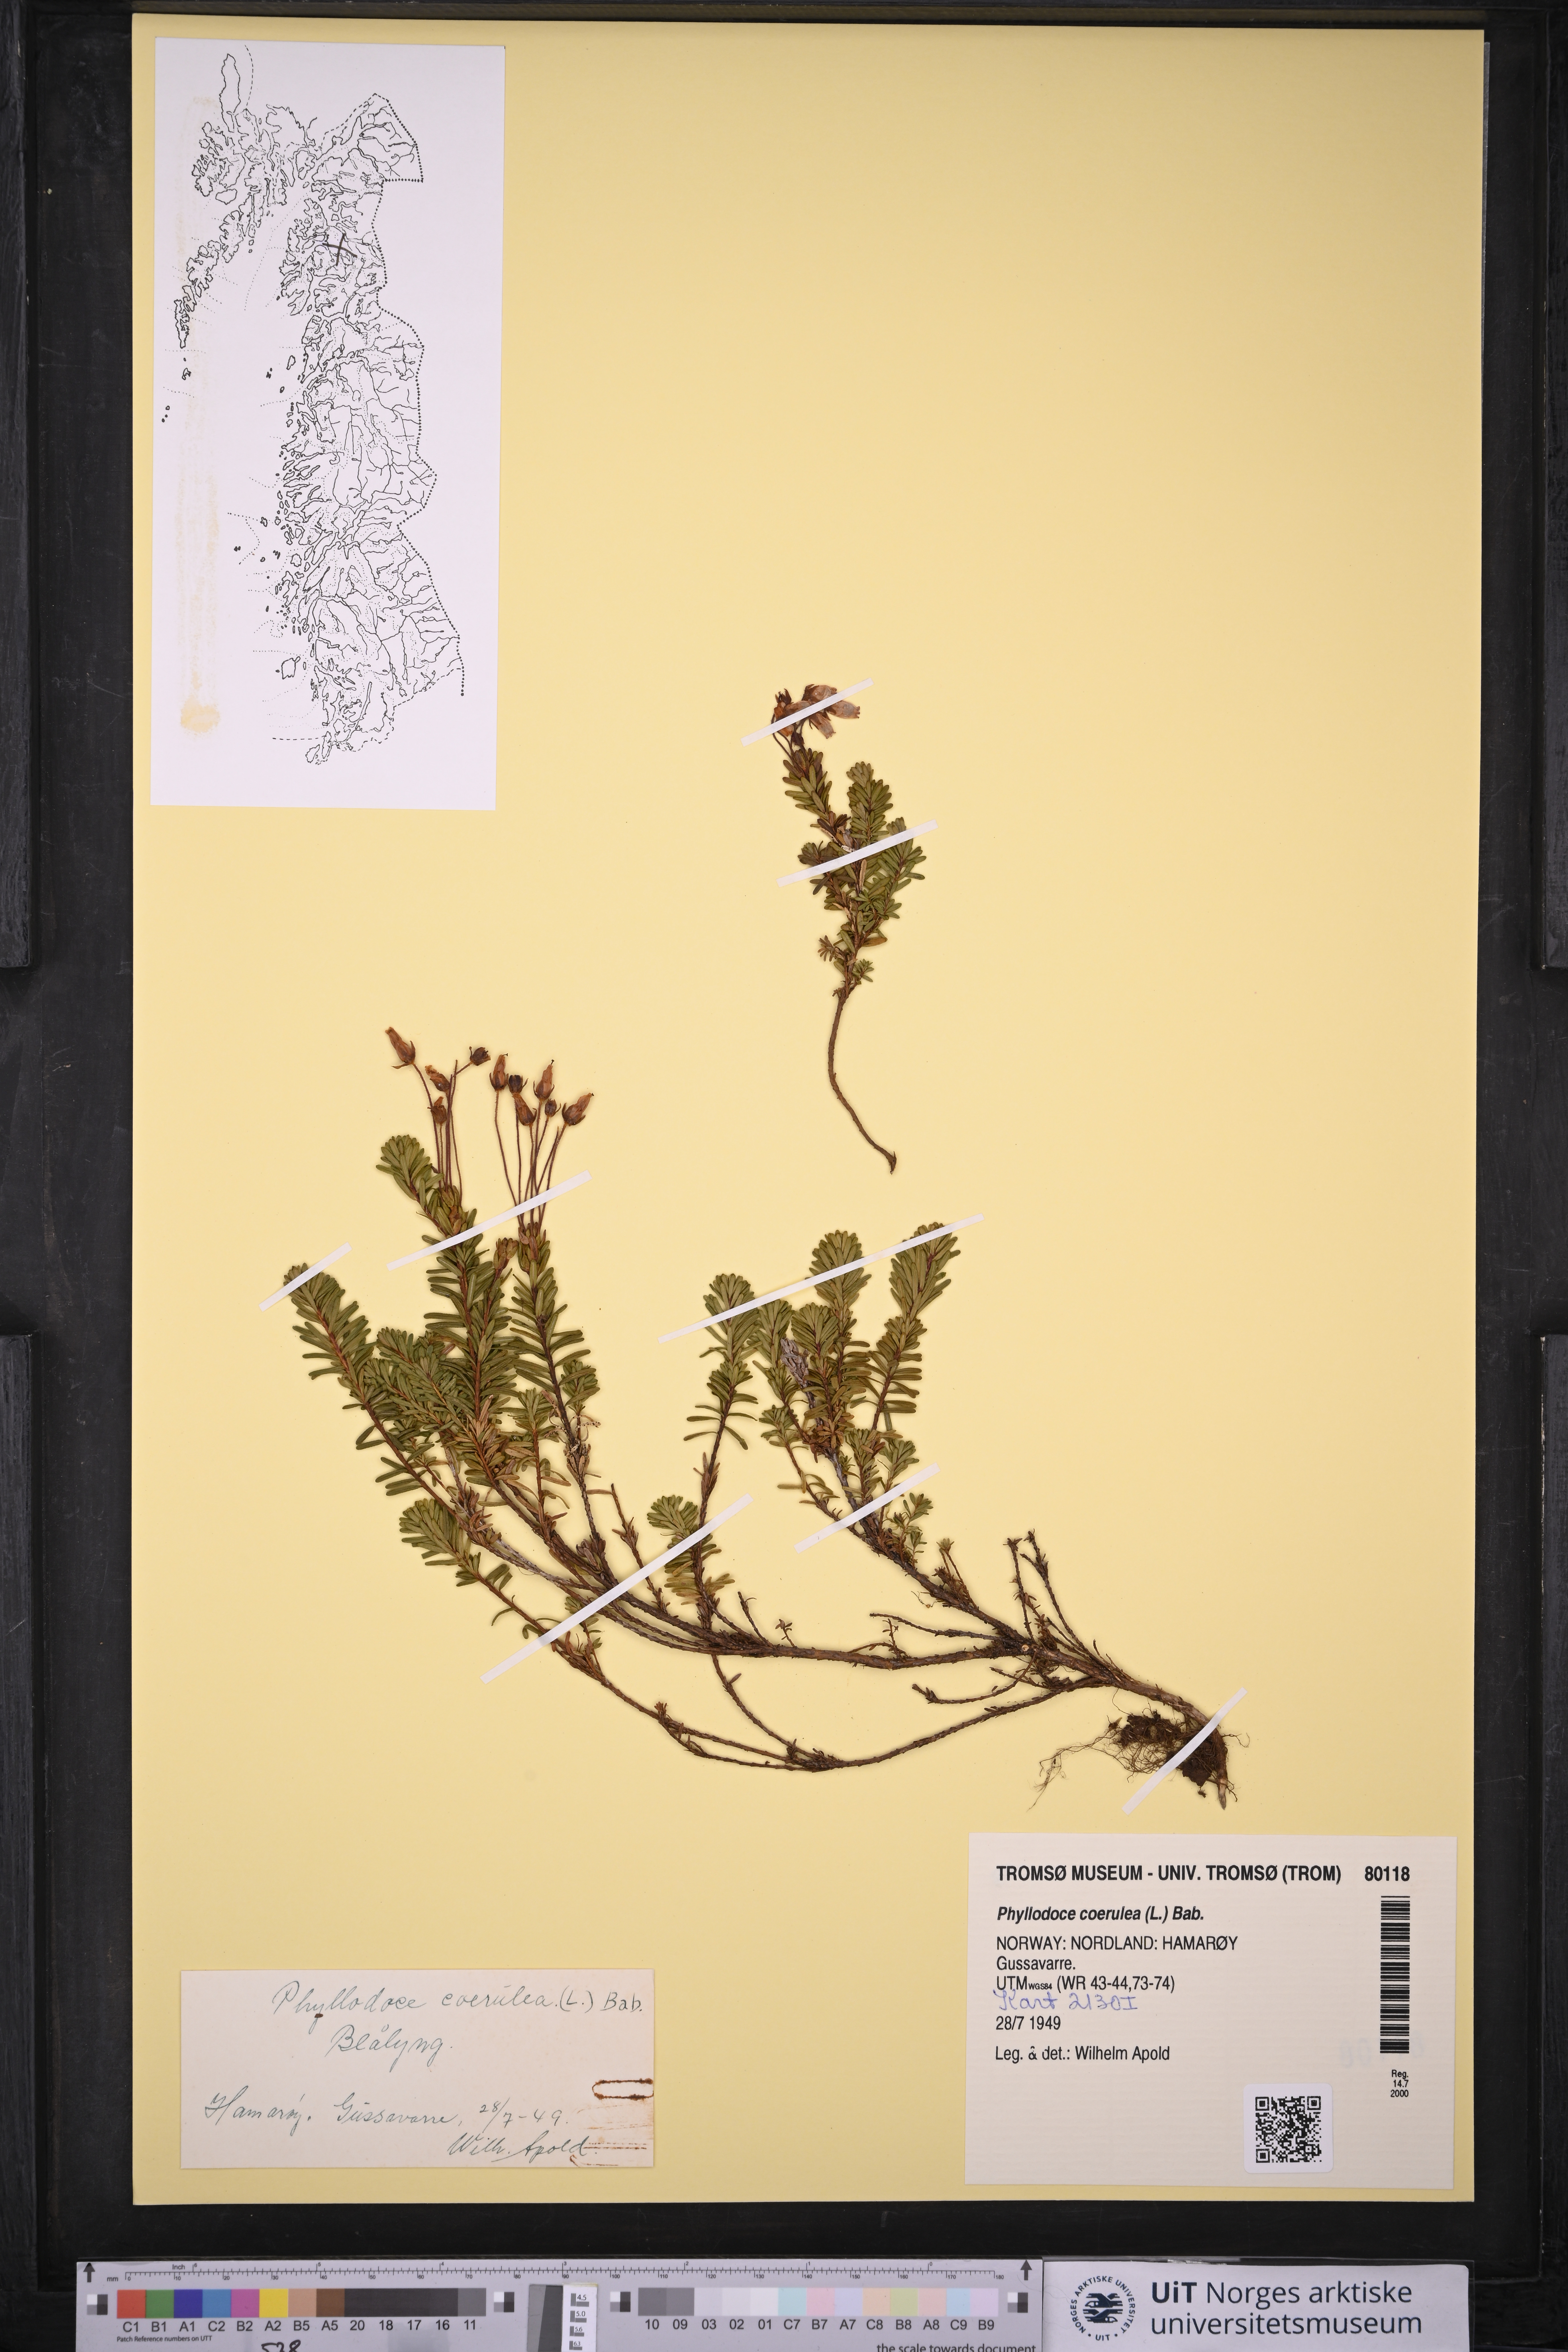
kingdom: Plantae
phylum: Tracheophyta
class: Magnoliopsida
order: Ericales
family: Ericaceae
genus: Phyllodoce
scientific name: Phyllodoce caerulea
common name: Blue heath
